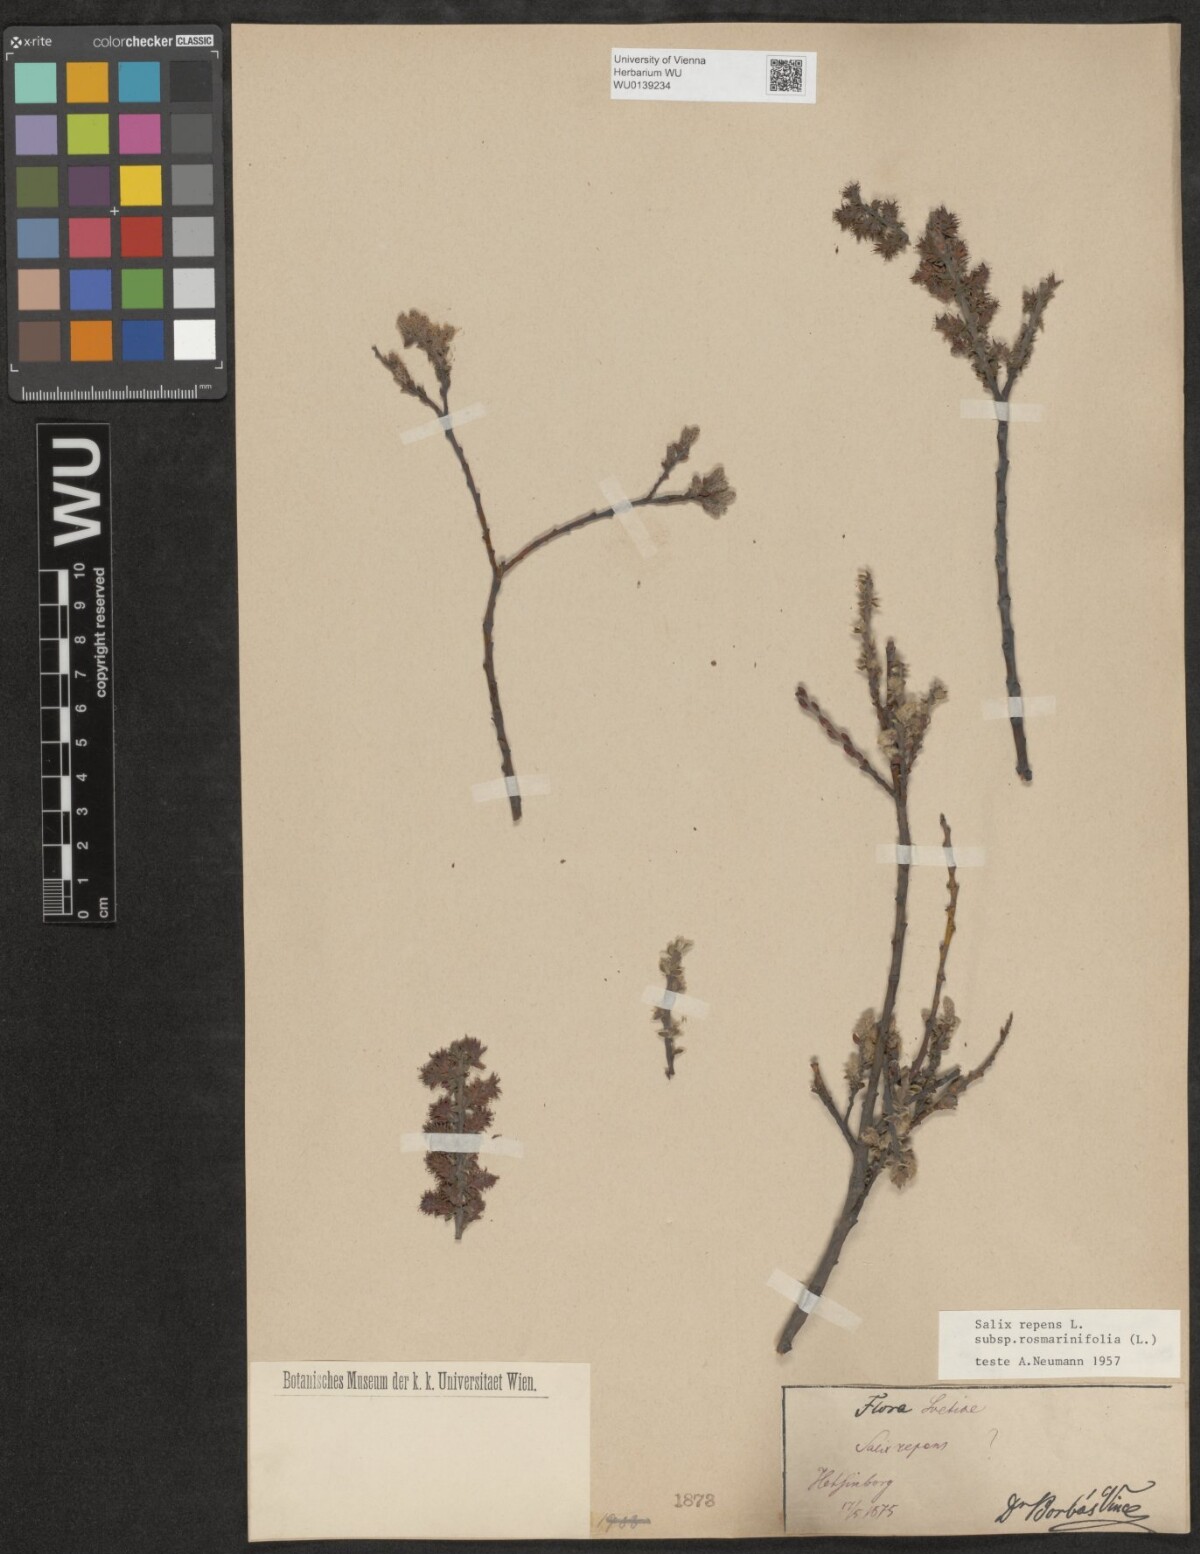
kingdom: Plantae
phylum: Tracheophyta
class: Magnoliopsida
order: Malpighiales
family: Salicaceae
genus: Salix
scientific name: Salix repens
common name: Creeping willow
